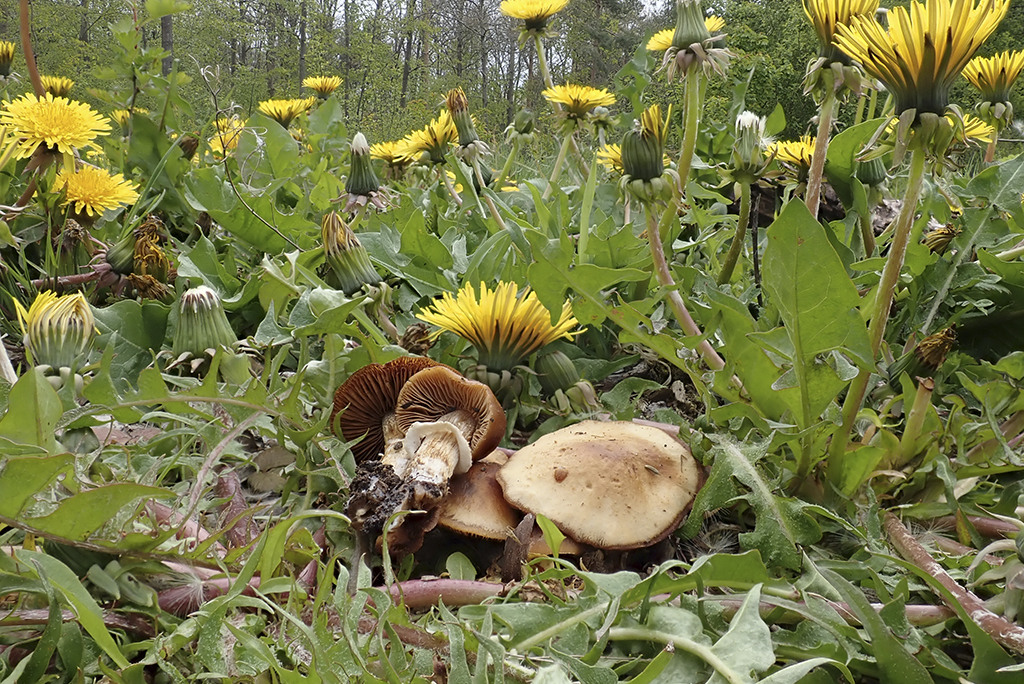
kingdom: Fungi
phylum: Basidiomycota
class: Agaricomycetes
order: Agaricales
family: Bolbitiaceae
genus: Conocybe
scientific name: Conocybe aporos
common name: tidlig dansehat
